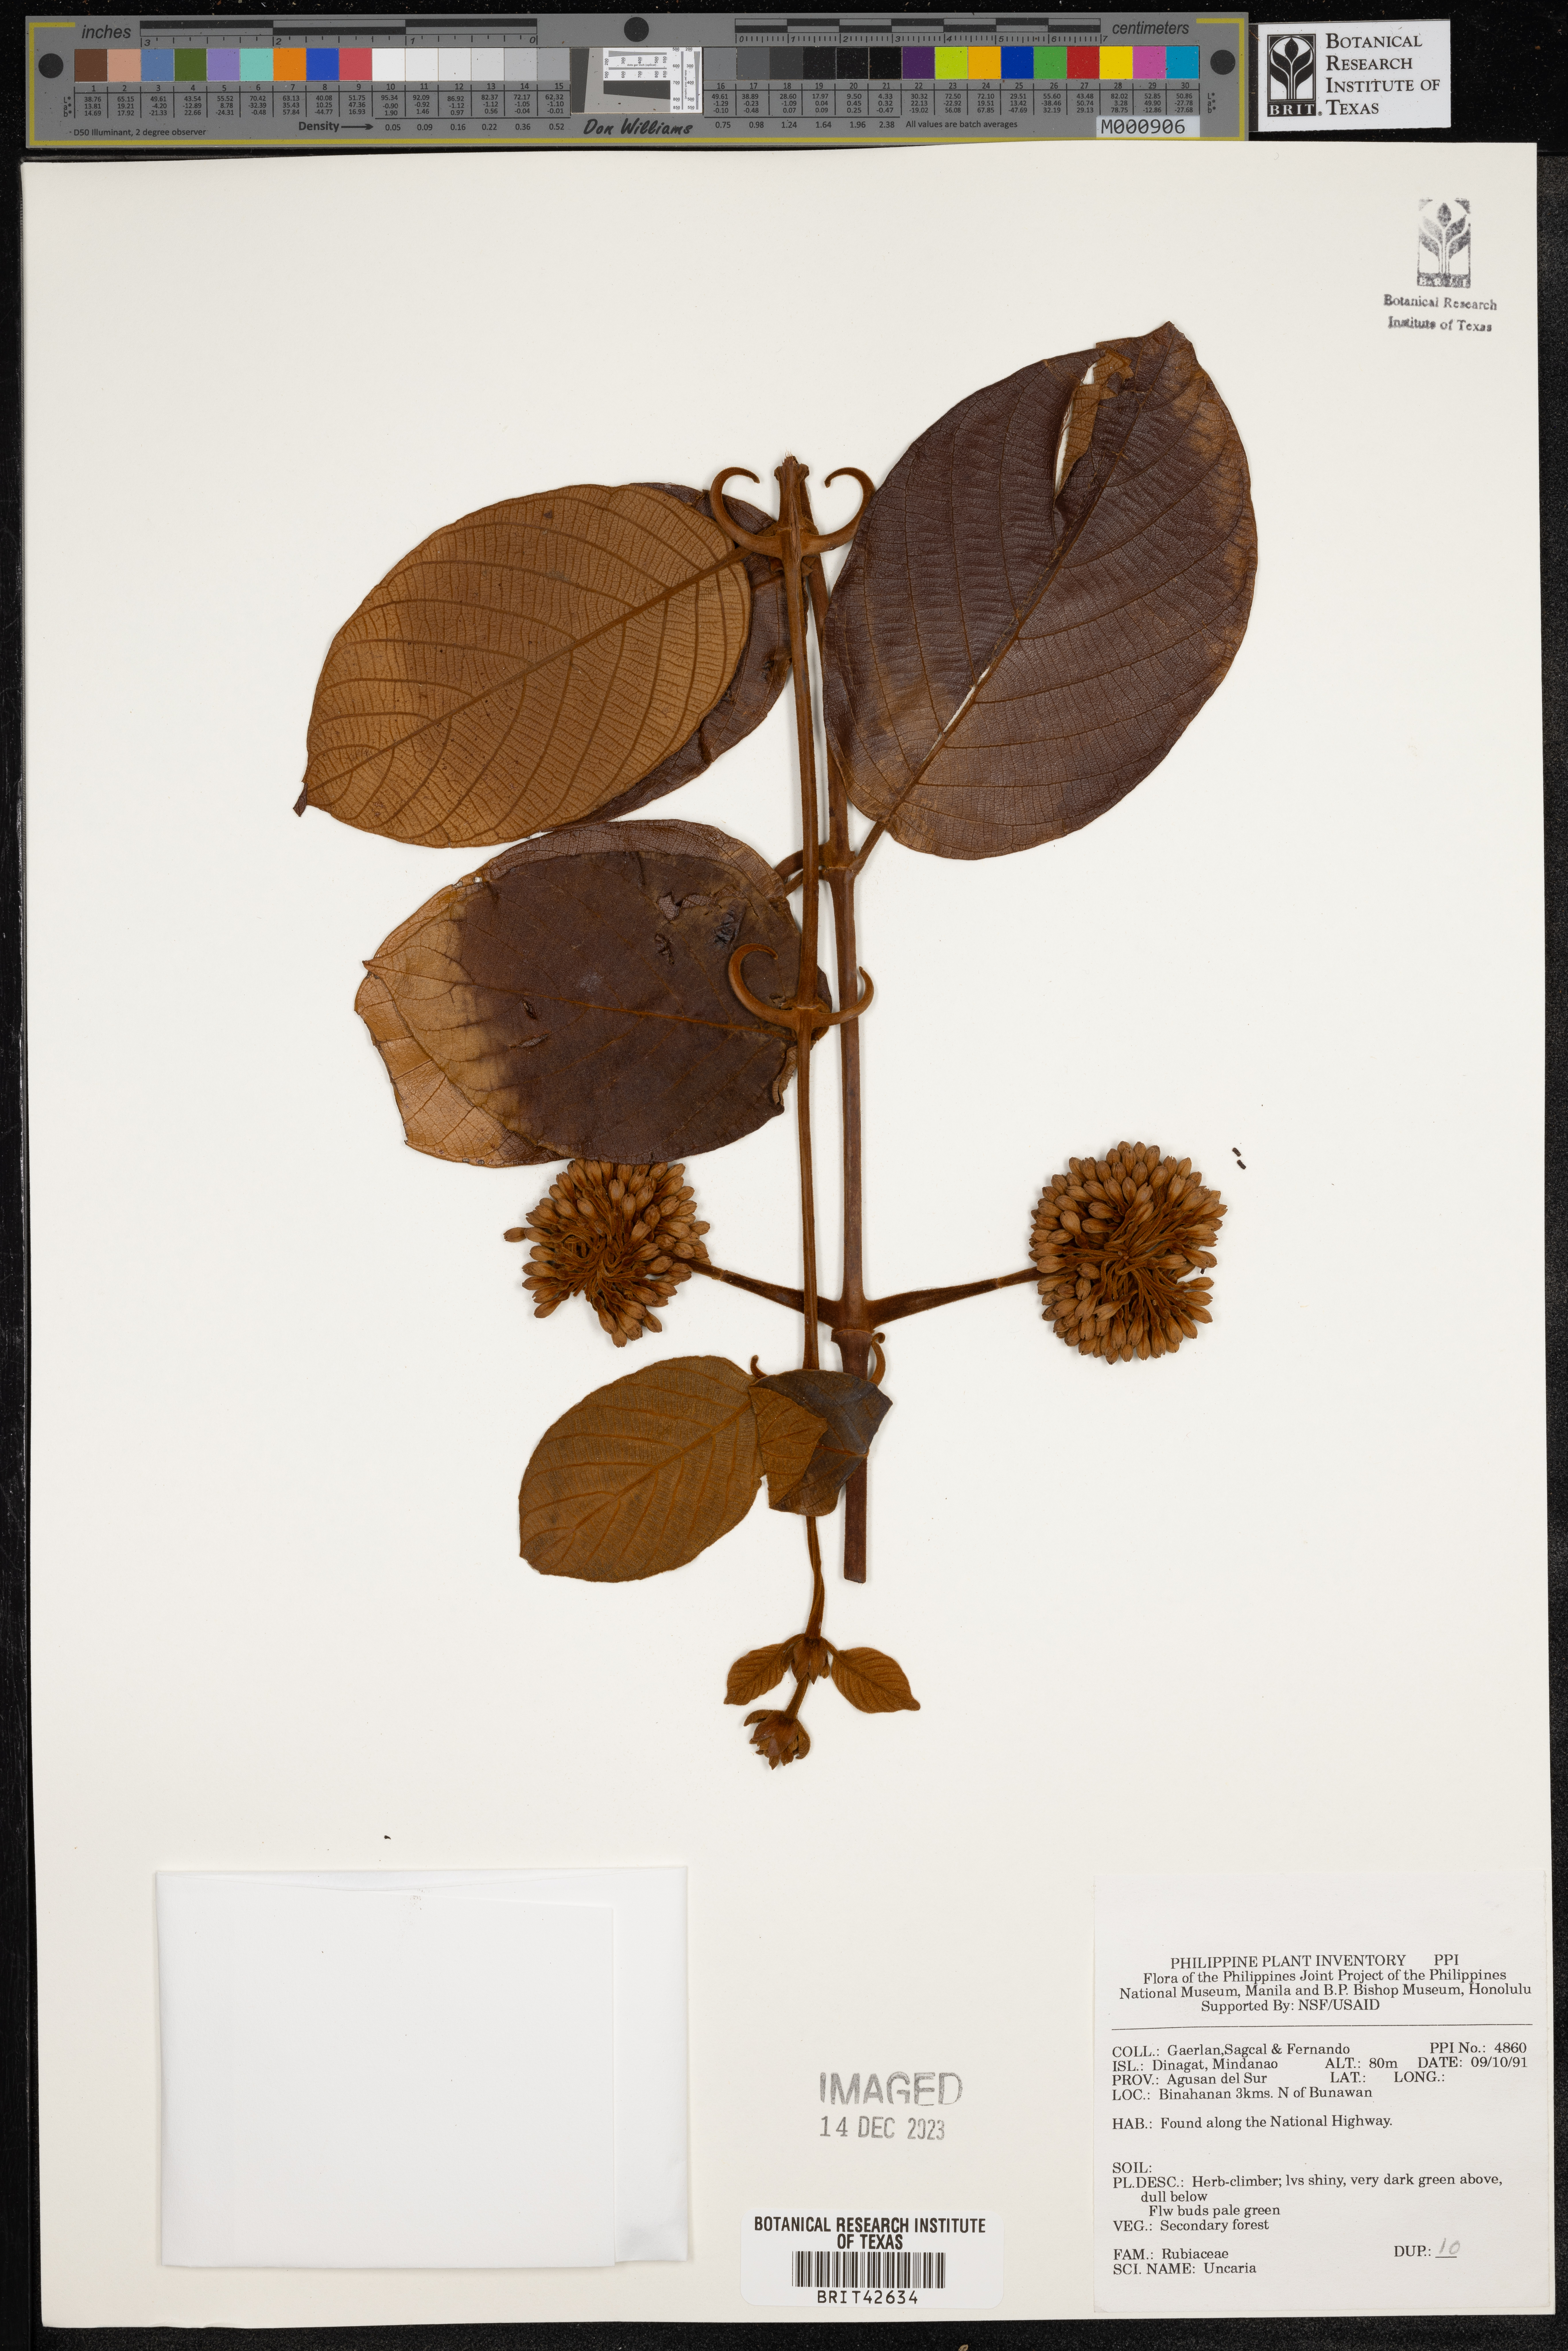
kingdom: Plantae
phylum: Tracheophyta
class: Magnoliopsida
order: Gentianales
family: Rubiaceae
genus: Uncaria
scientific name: Uncaria
